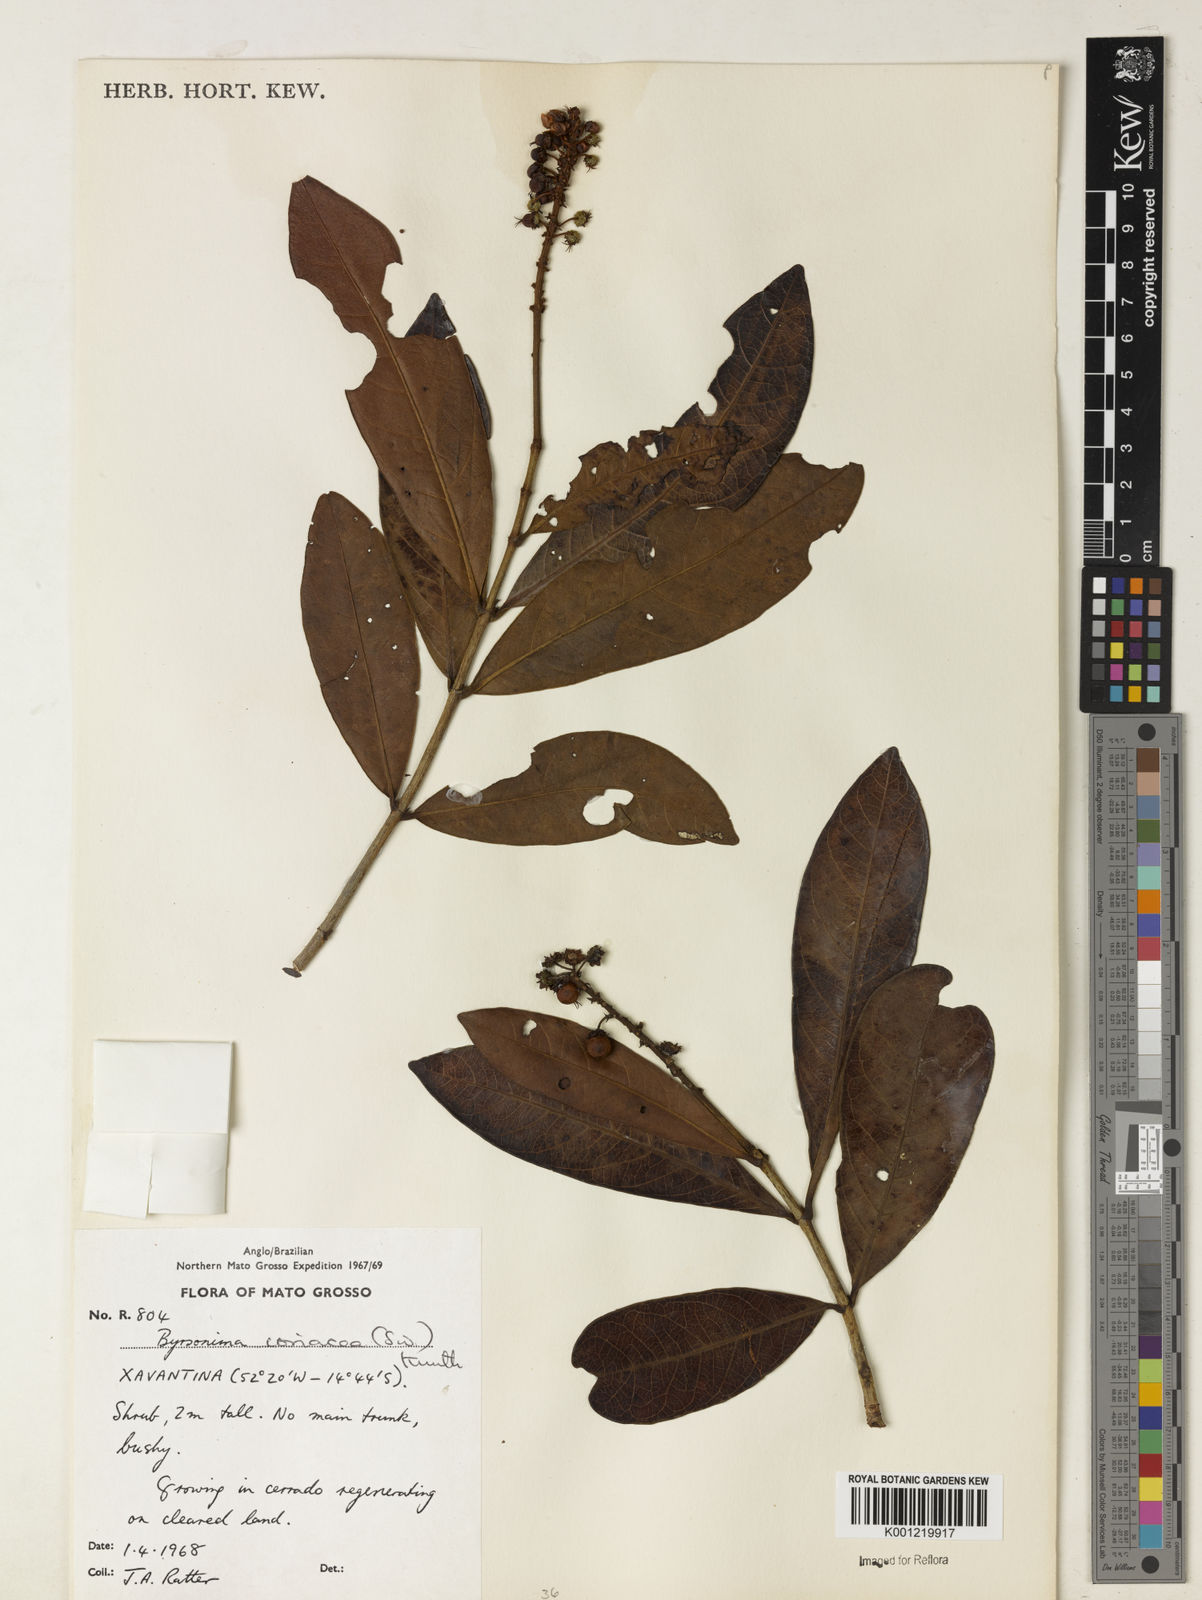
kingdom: Plantae
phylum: Tracheophyta
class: Magnoliopsida
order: Malpighiales
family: Malpighiaceae
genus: Byrsonima
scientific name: Byrsonima
